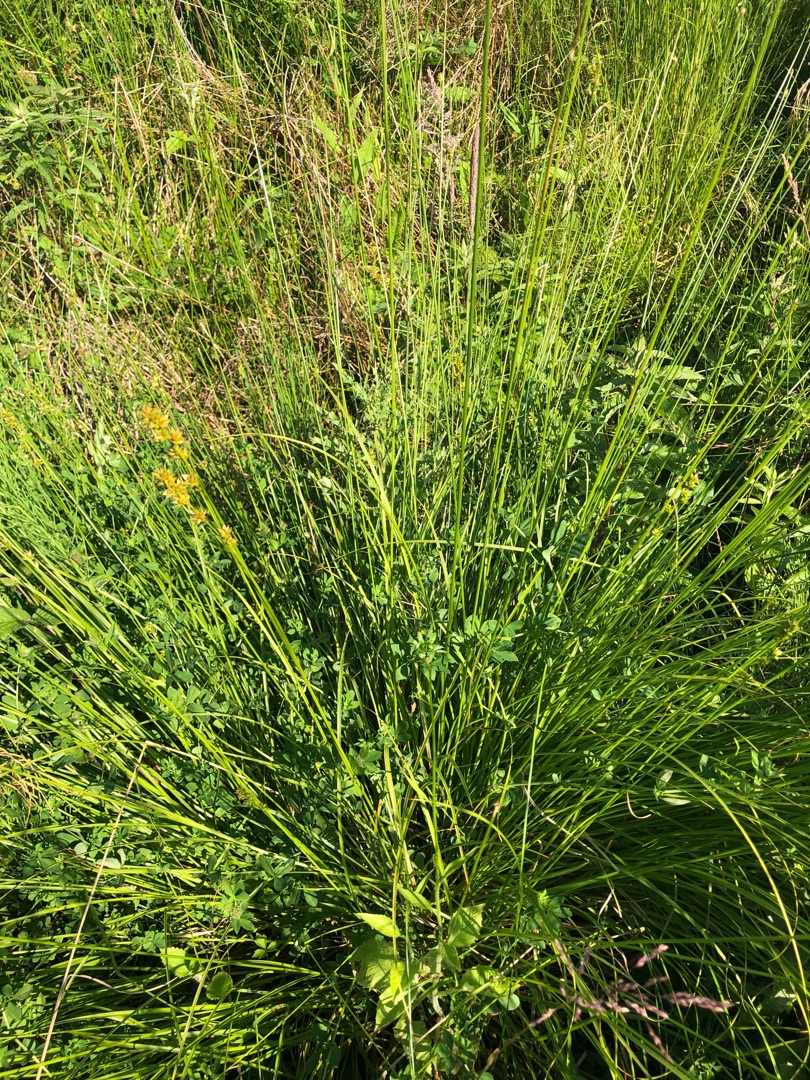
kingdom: Plantae
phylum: Tracheophyta
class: Liliopsida
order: Poales
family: Cyperaceae
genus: Carex
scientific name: Carex divulsa
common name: Mellembrudt star
